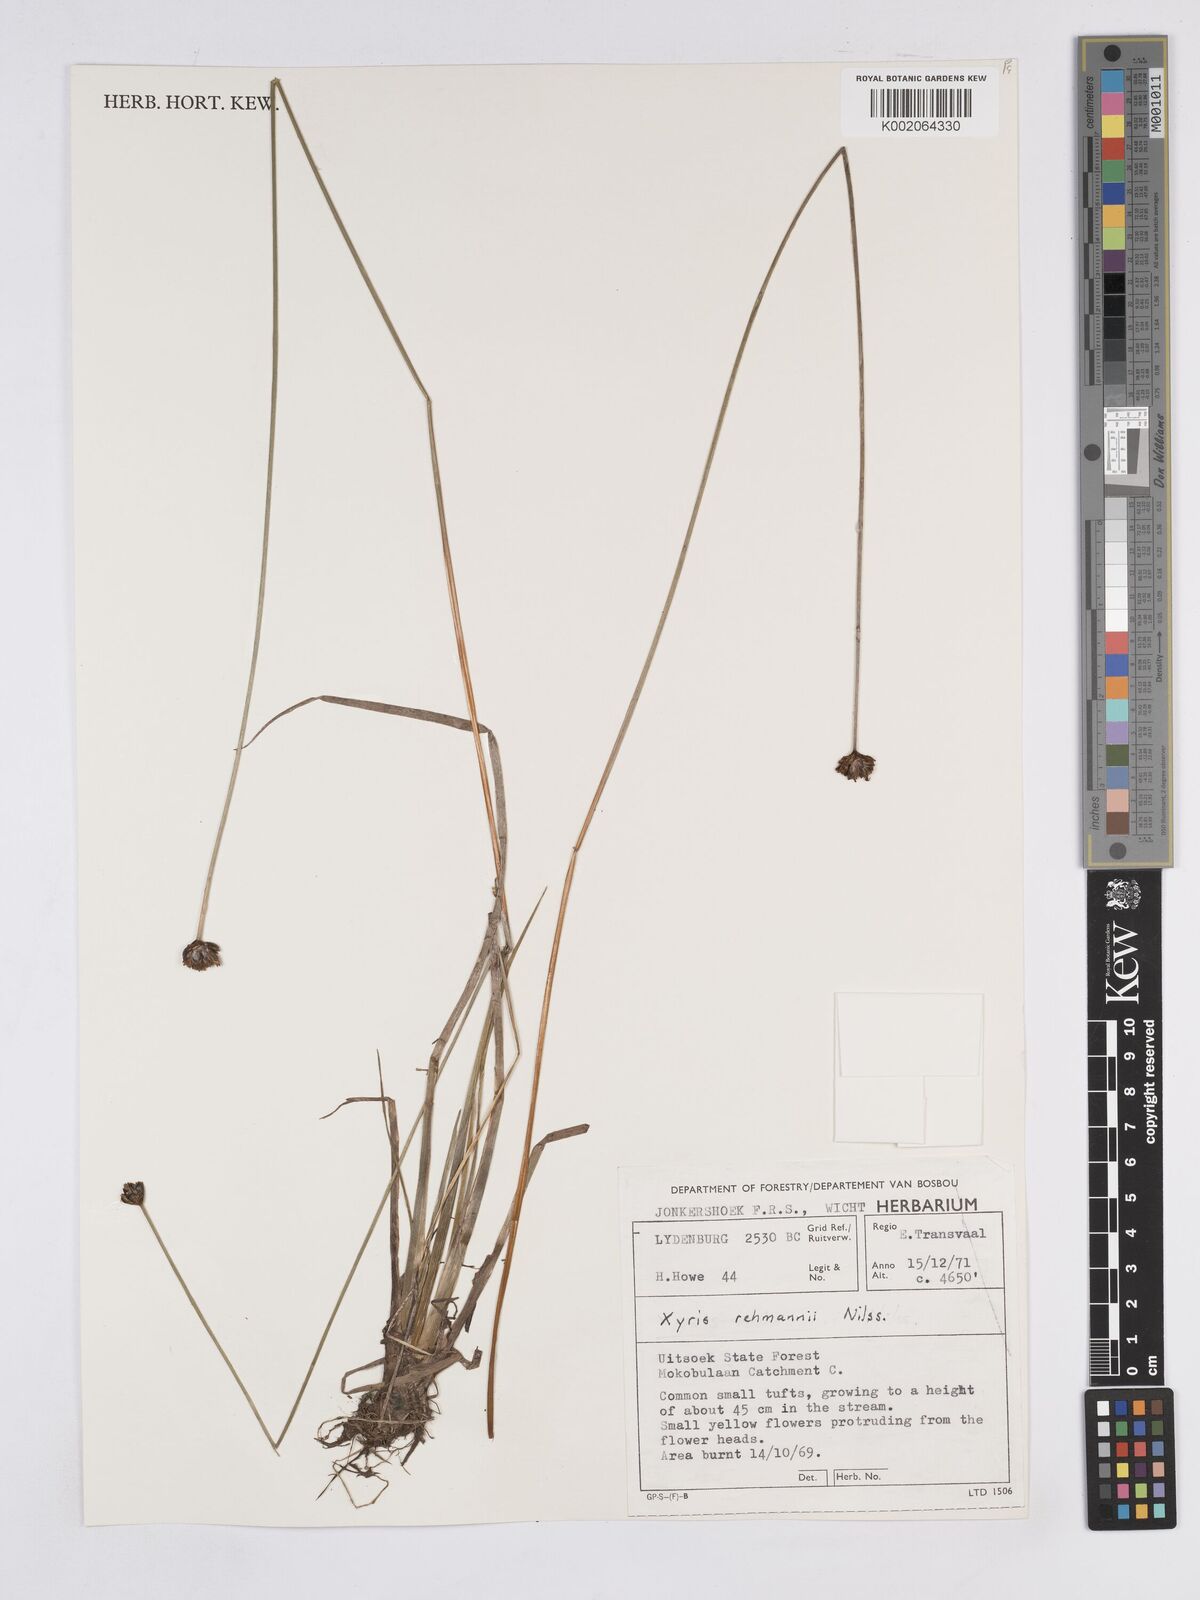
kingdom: Plantae
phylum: Tracheophyta
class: Liliopsida
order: Poales
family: Xyridaceae
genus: Xyris
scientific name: Xyris rehmannii
